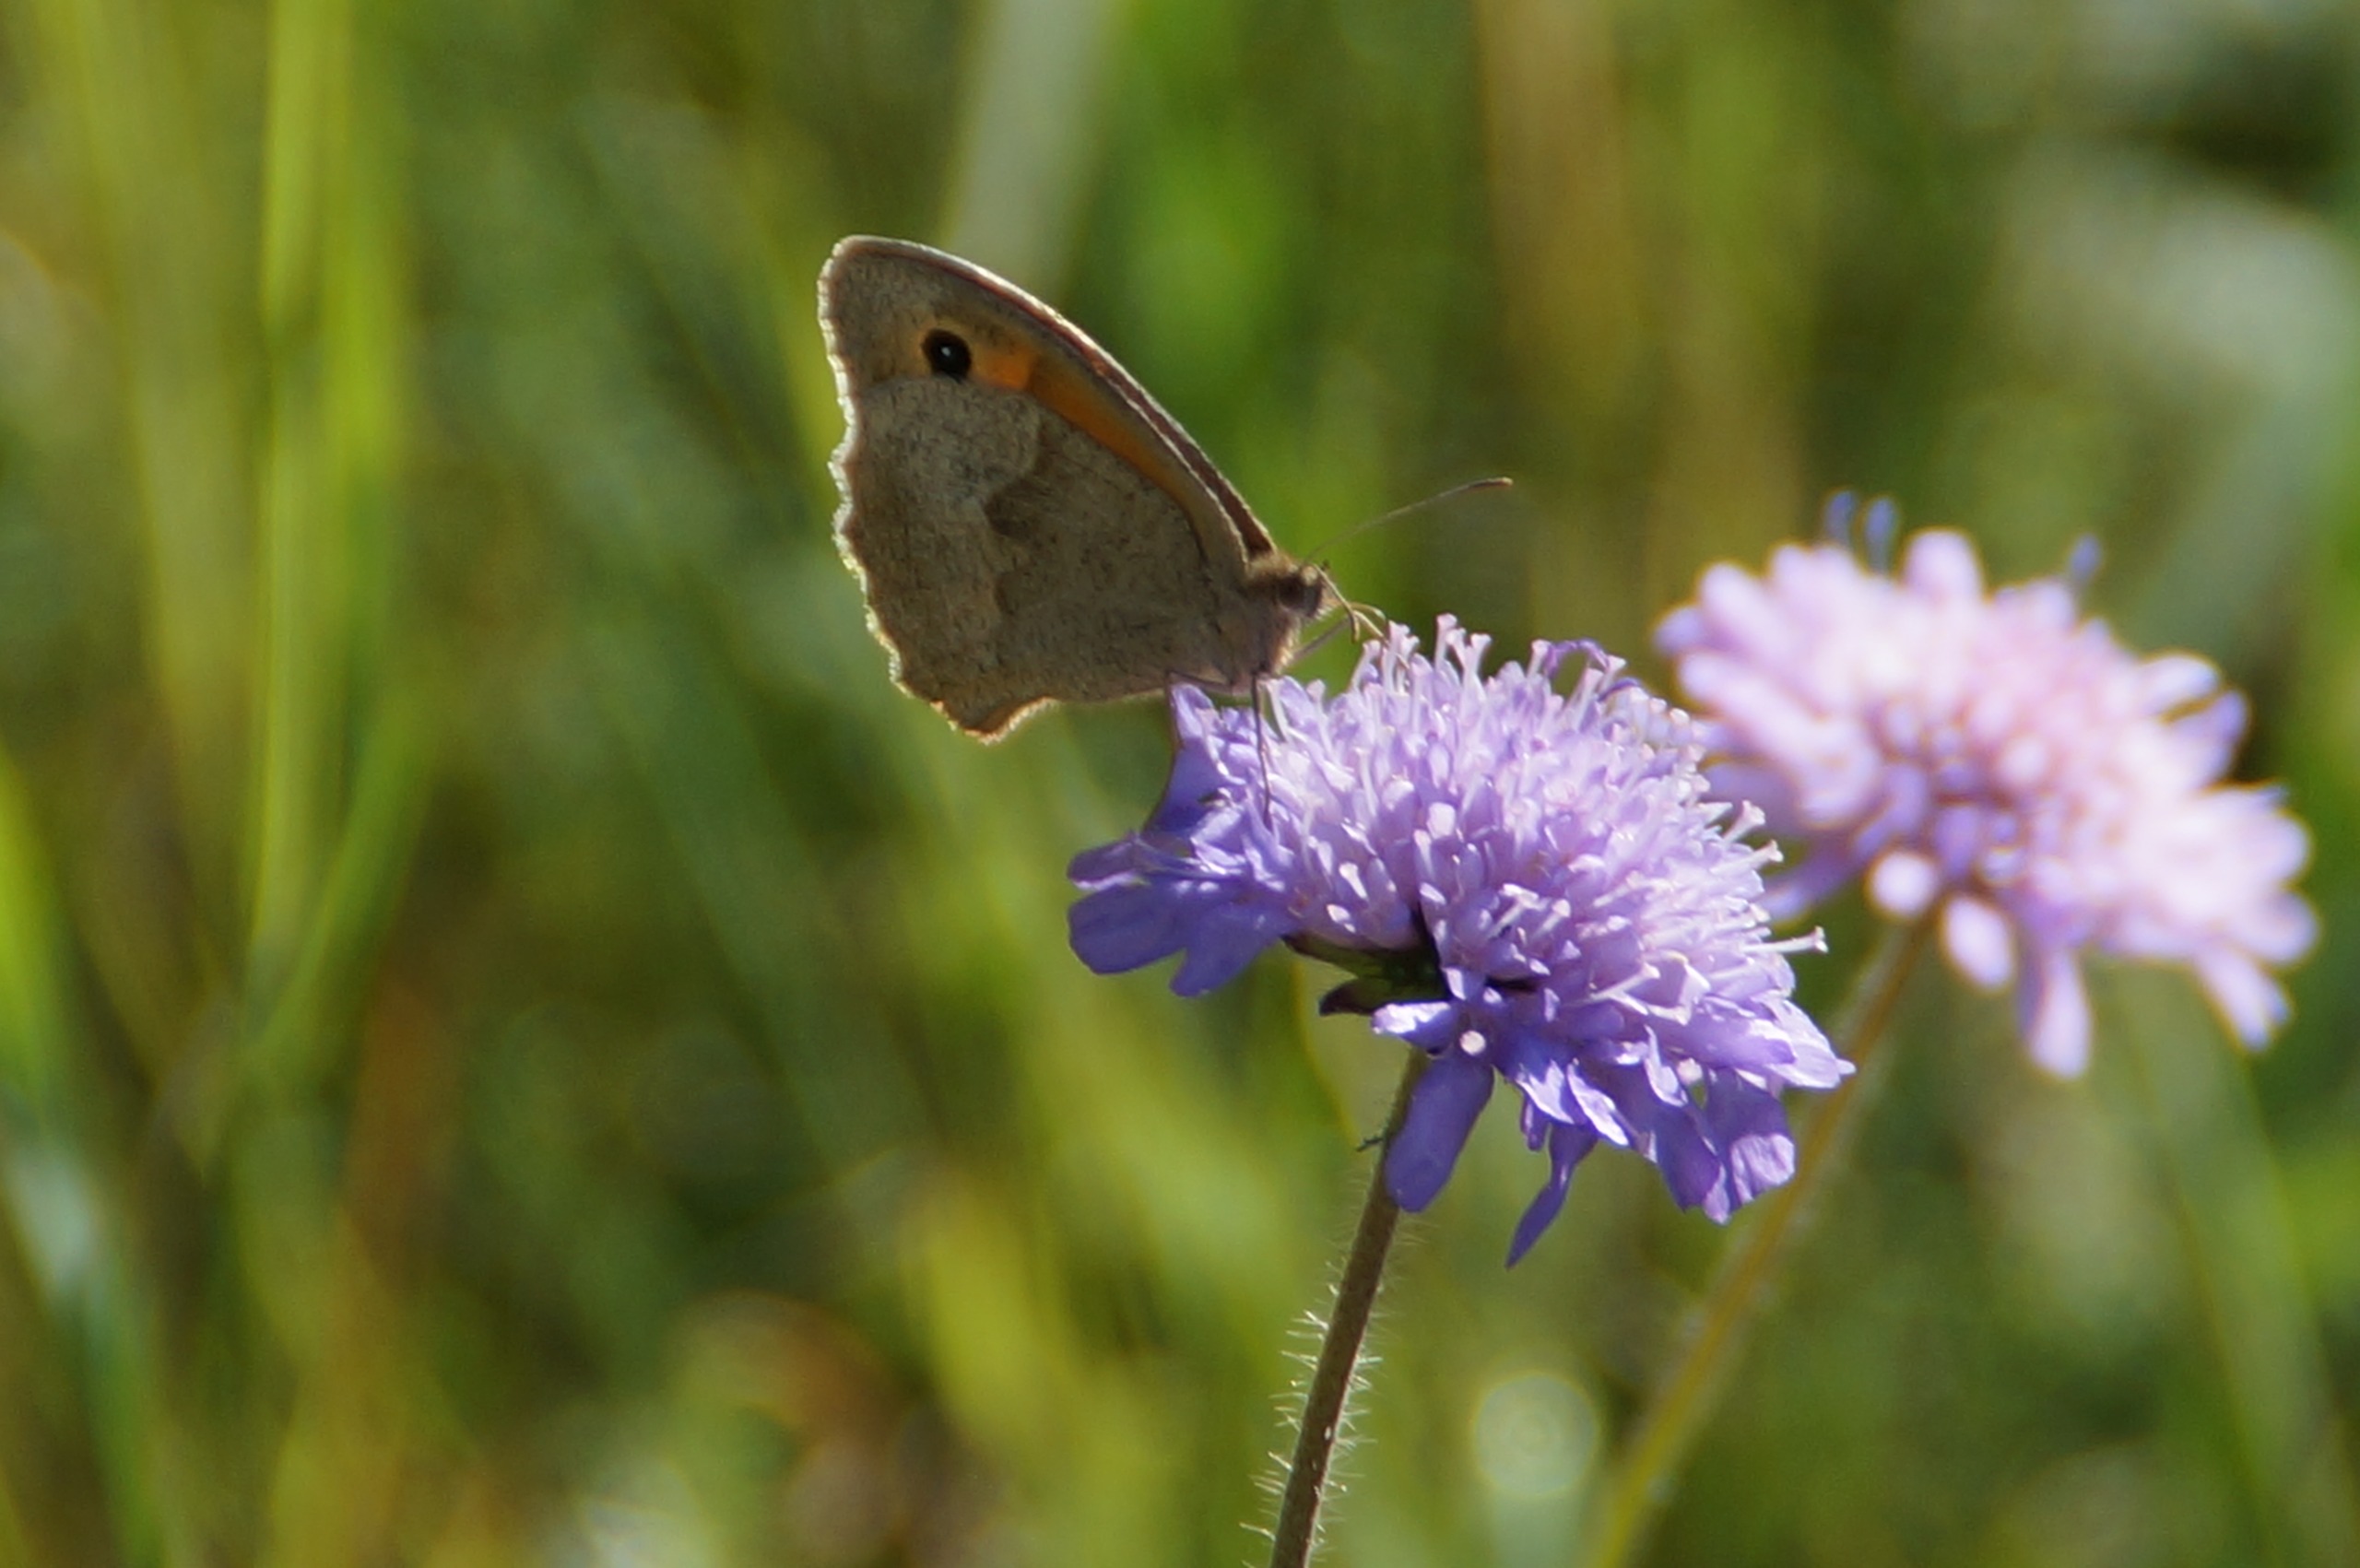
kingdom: Animalia
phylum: Arthropoda
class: Insecta
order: Lepidoptera
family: Nymphalidae
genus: Maniola
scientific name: Maniola jurtina
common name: Græsrandøje
